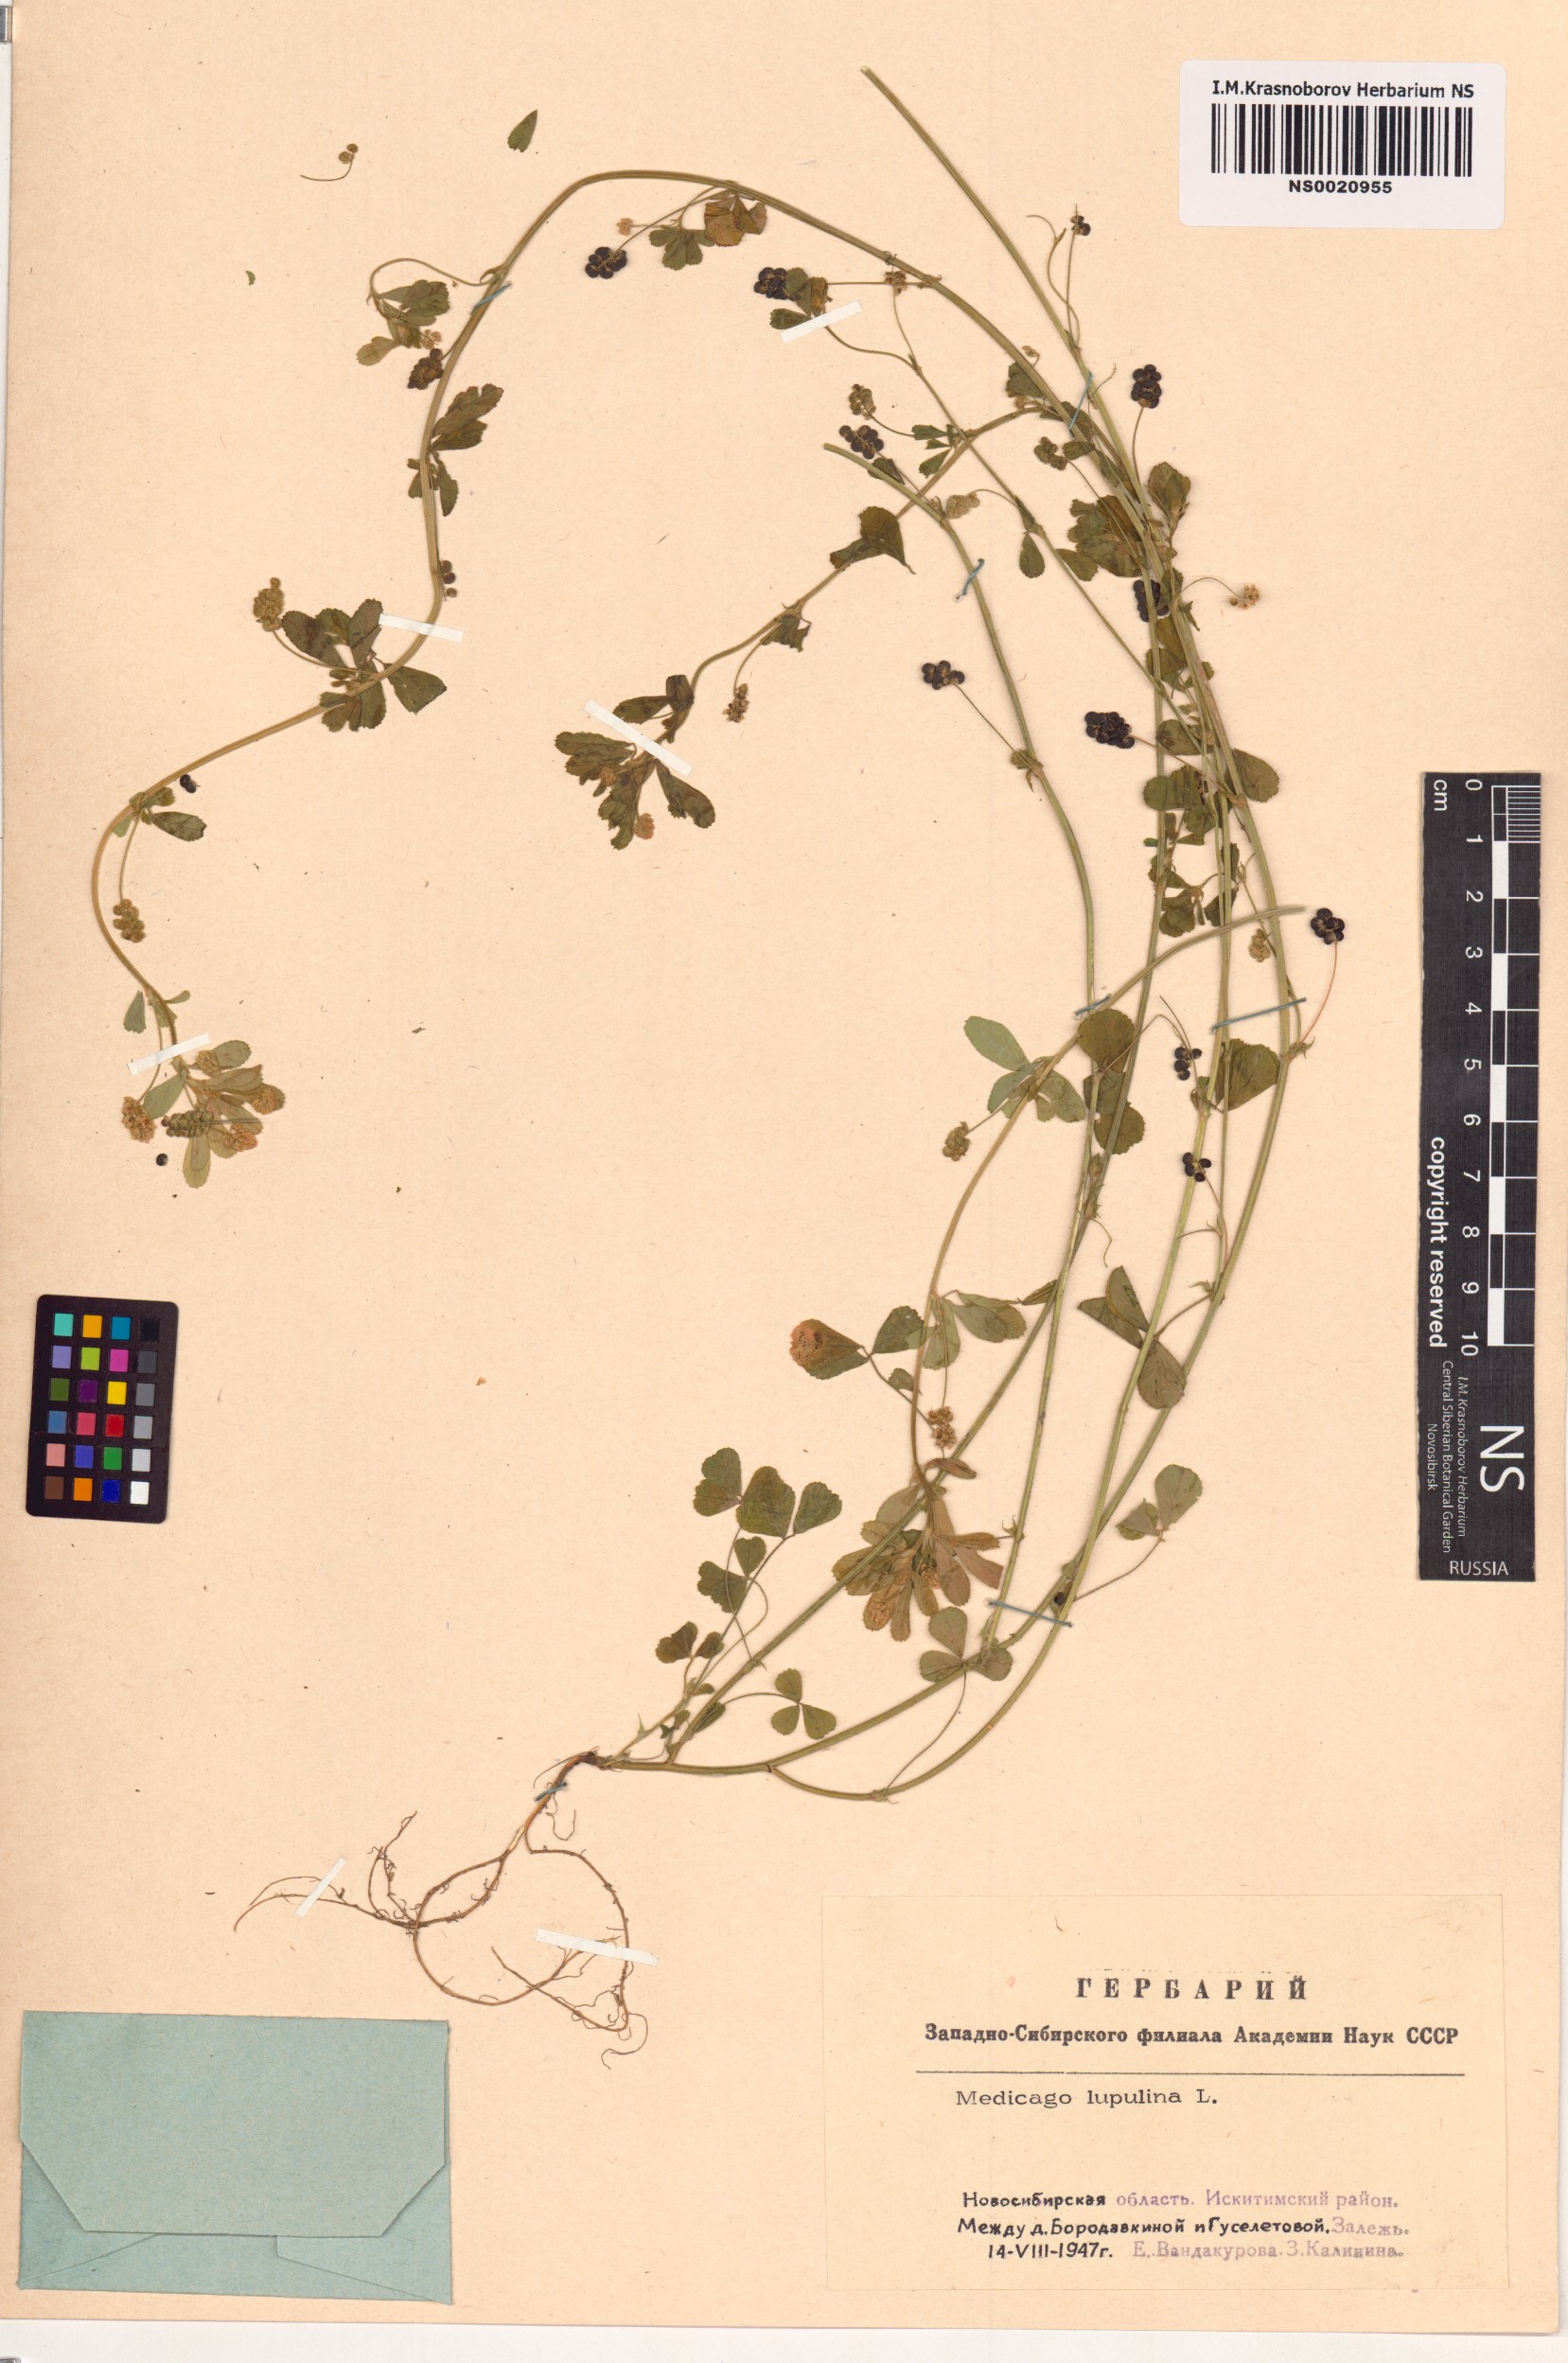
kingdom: Plantae
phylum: Tracheophyta
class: Magnoliopsida
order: Fabales
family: Fabaceae
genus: Medicago
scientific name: Medicago lupulina
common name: Black medick
